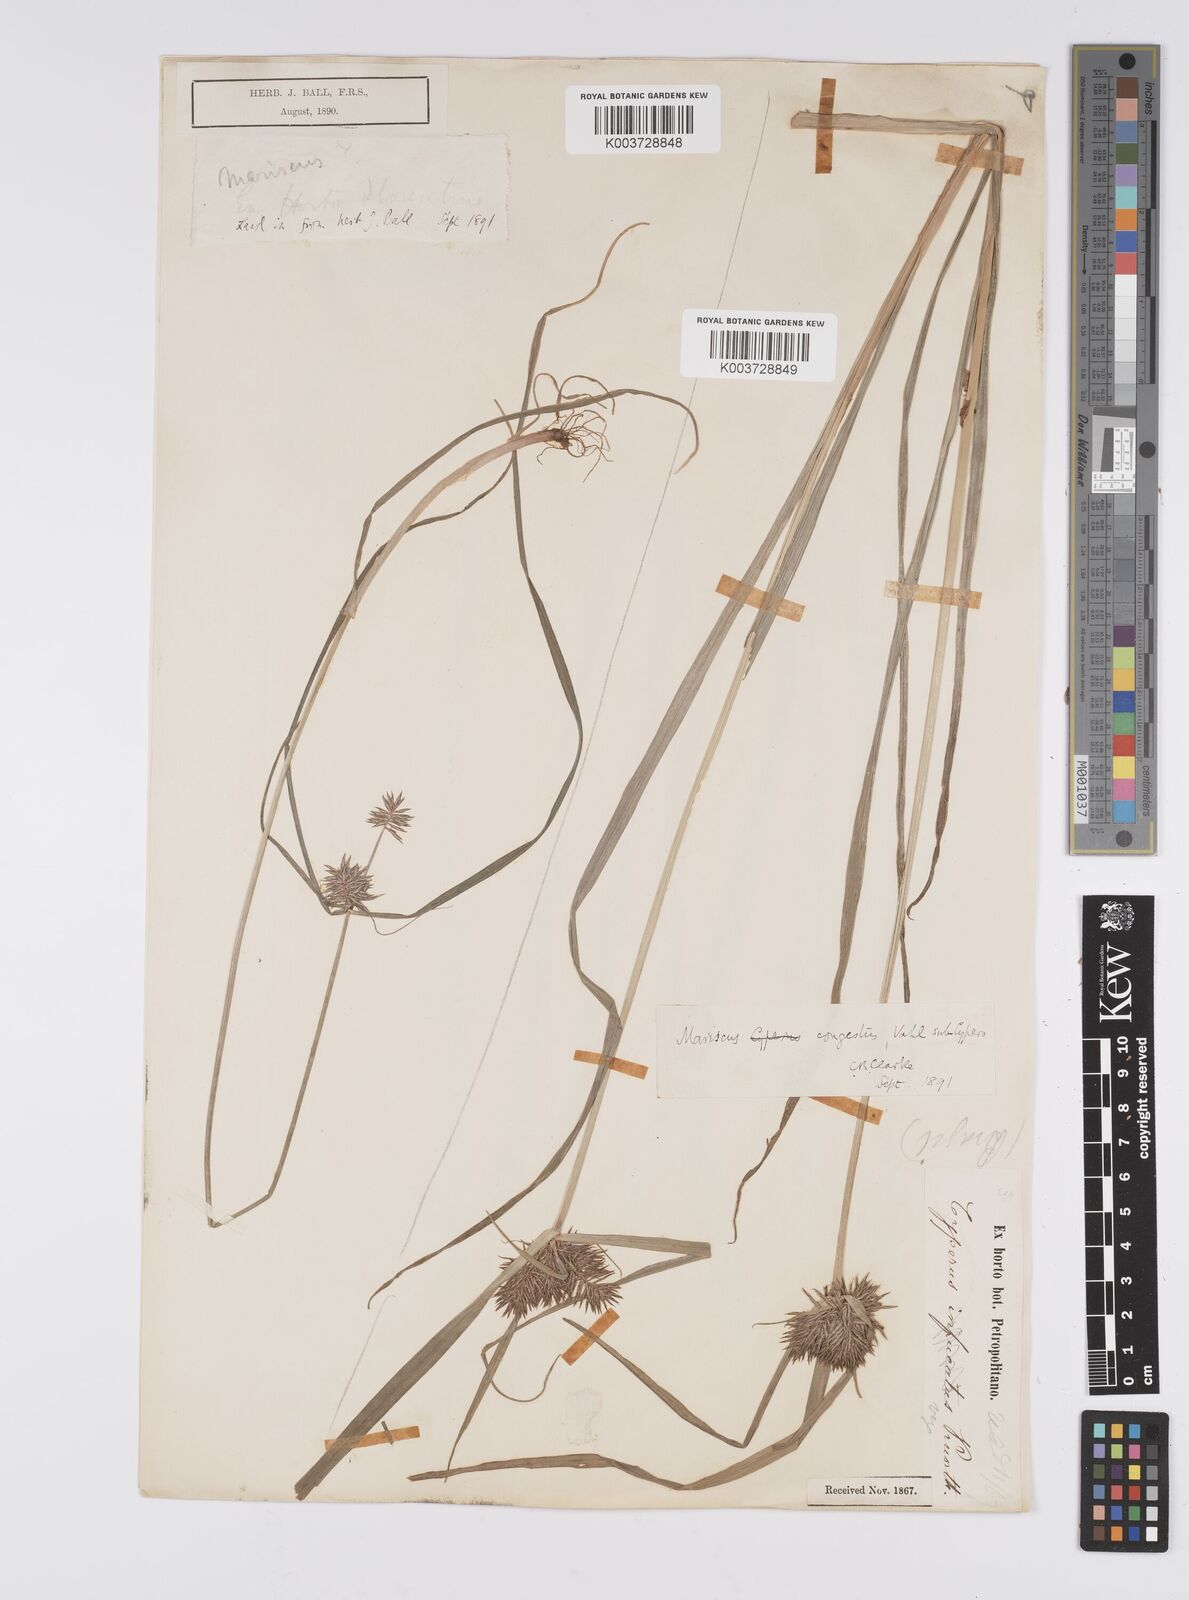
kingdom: Plantae
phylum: Tracheophyta
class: Liliopsida
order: Poales
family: Cyperaceae
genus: Cyperus
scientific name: Cyperus congestus
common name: Dense flat sedge
